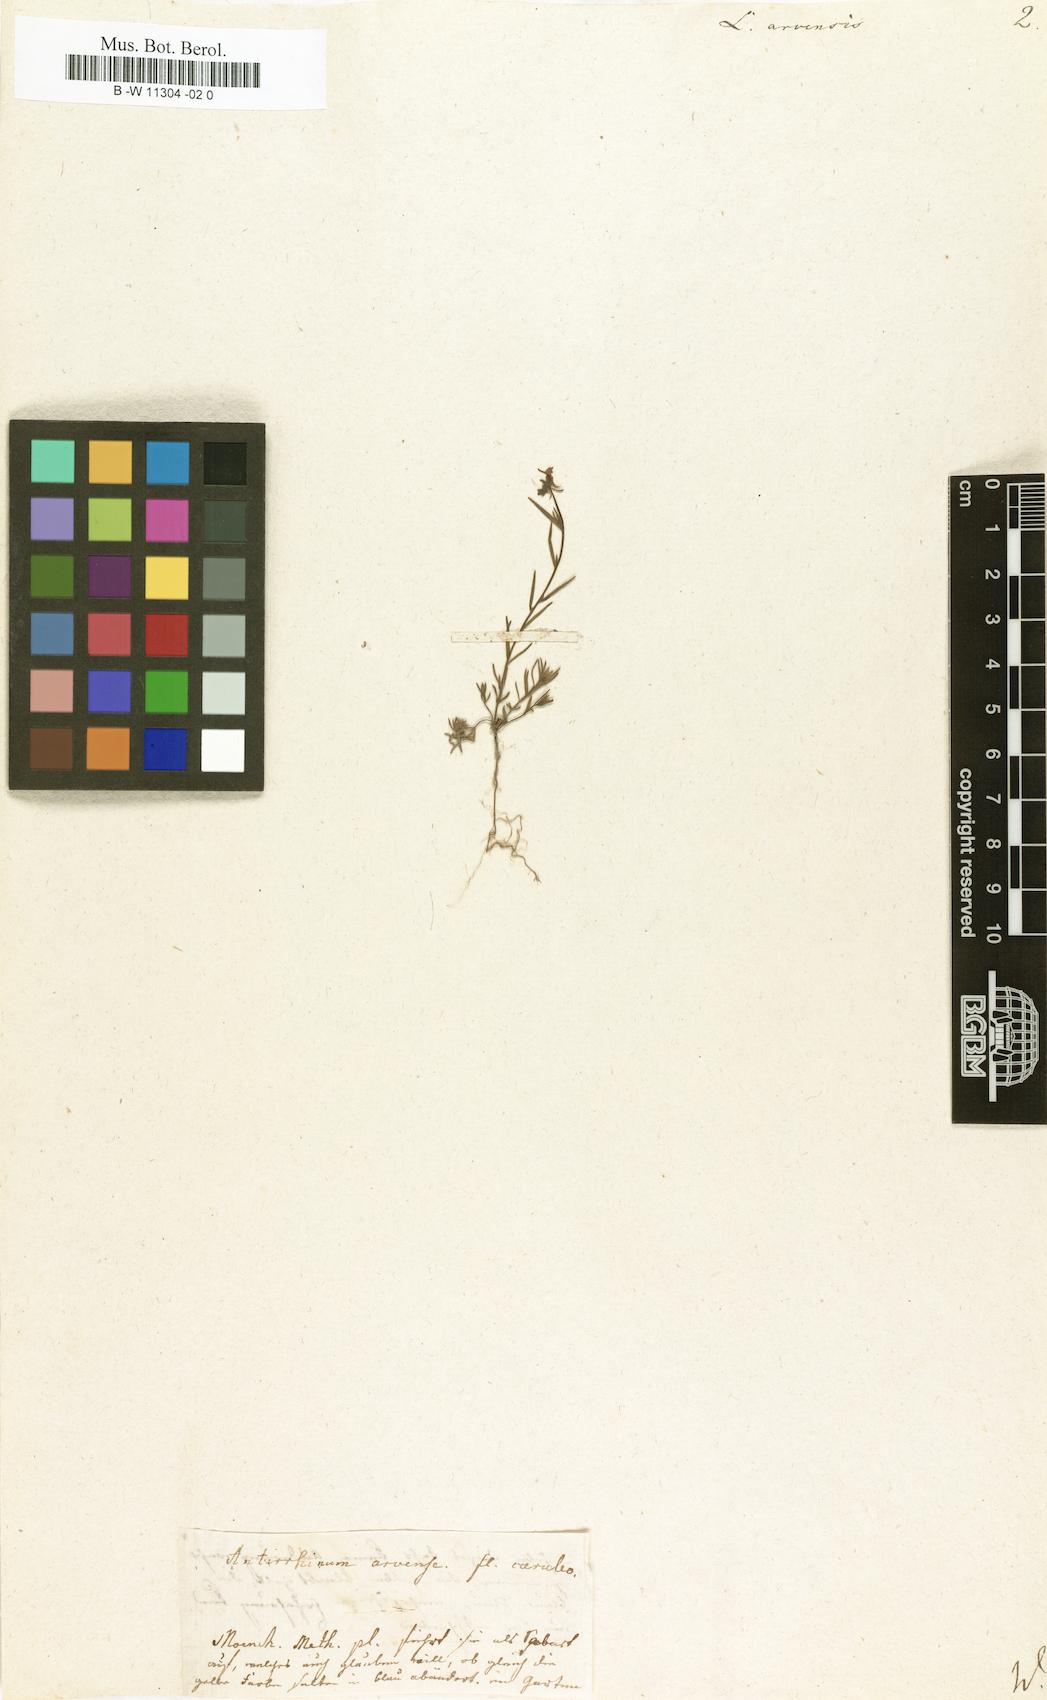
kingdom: Plantae
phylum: Tracheophyta
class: Magnoliopsida
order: Lamiales
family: Plantaginaceae
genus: Linaria
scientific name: Linaria arvensis
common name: Corn toadflax
